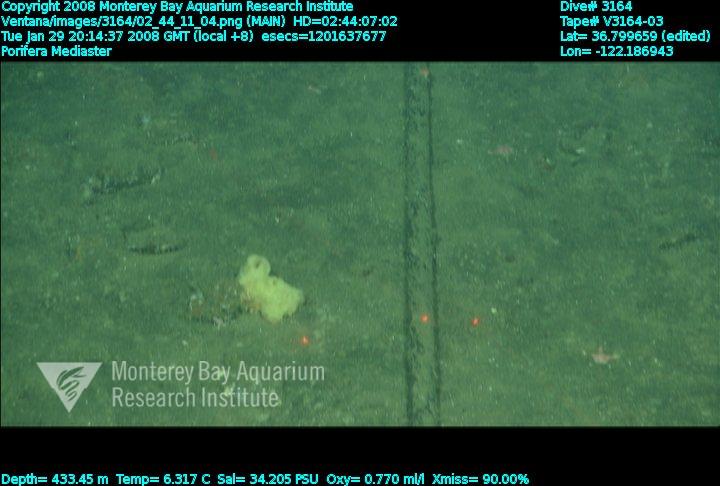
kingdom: Animalia
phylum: Porifera
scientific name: Porifera
